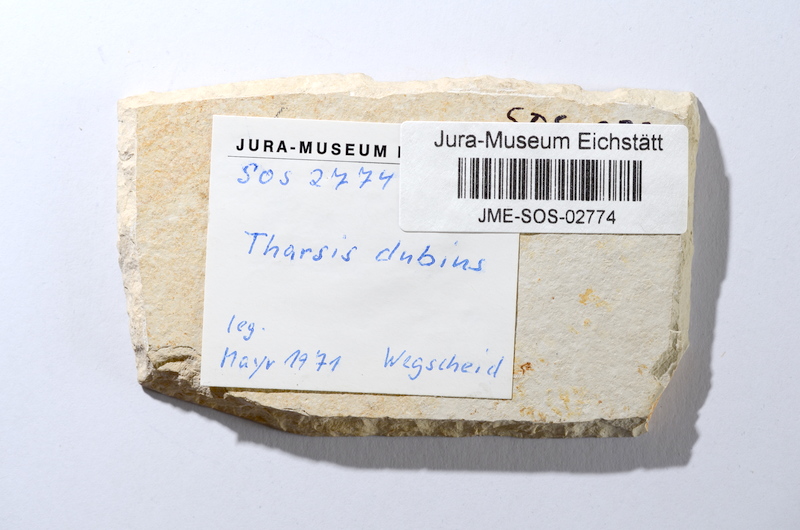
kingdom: Animalia
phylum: Chordata
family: Ascalaboidae
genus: Tharsis
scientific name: Tharsis dubius
